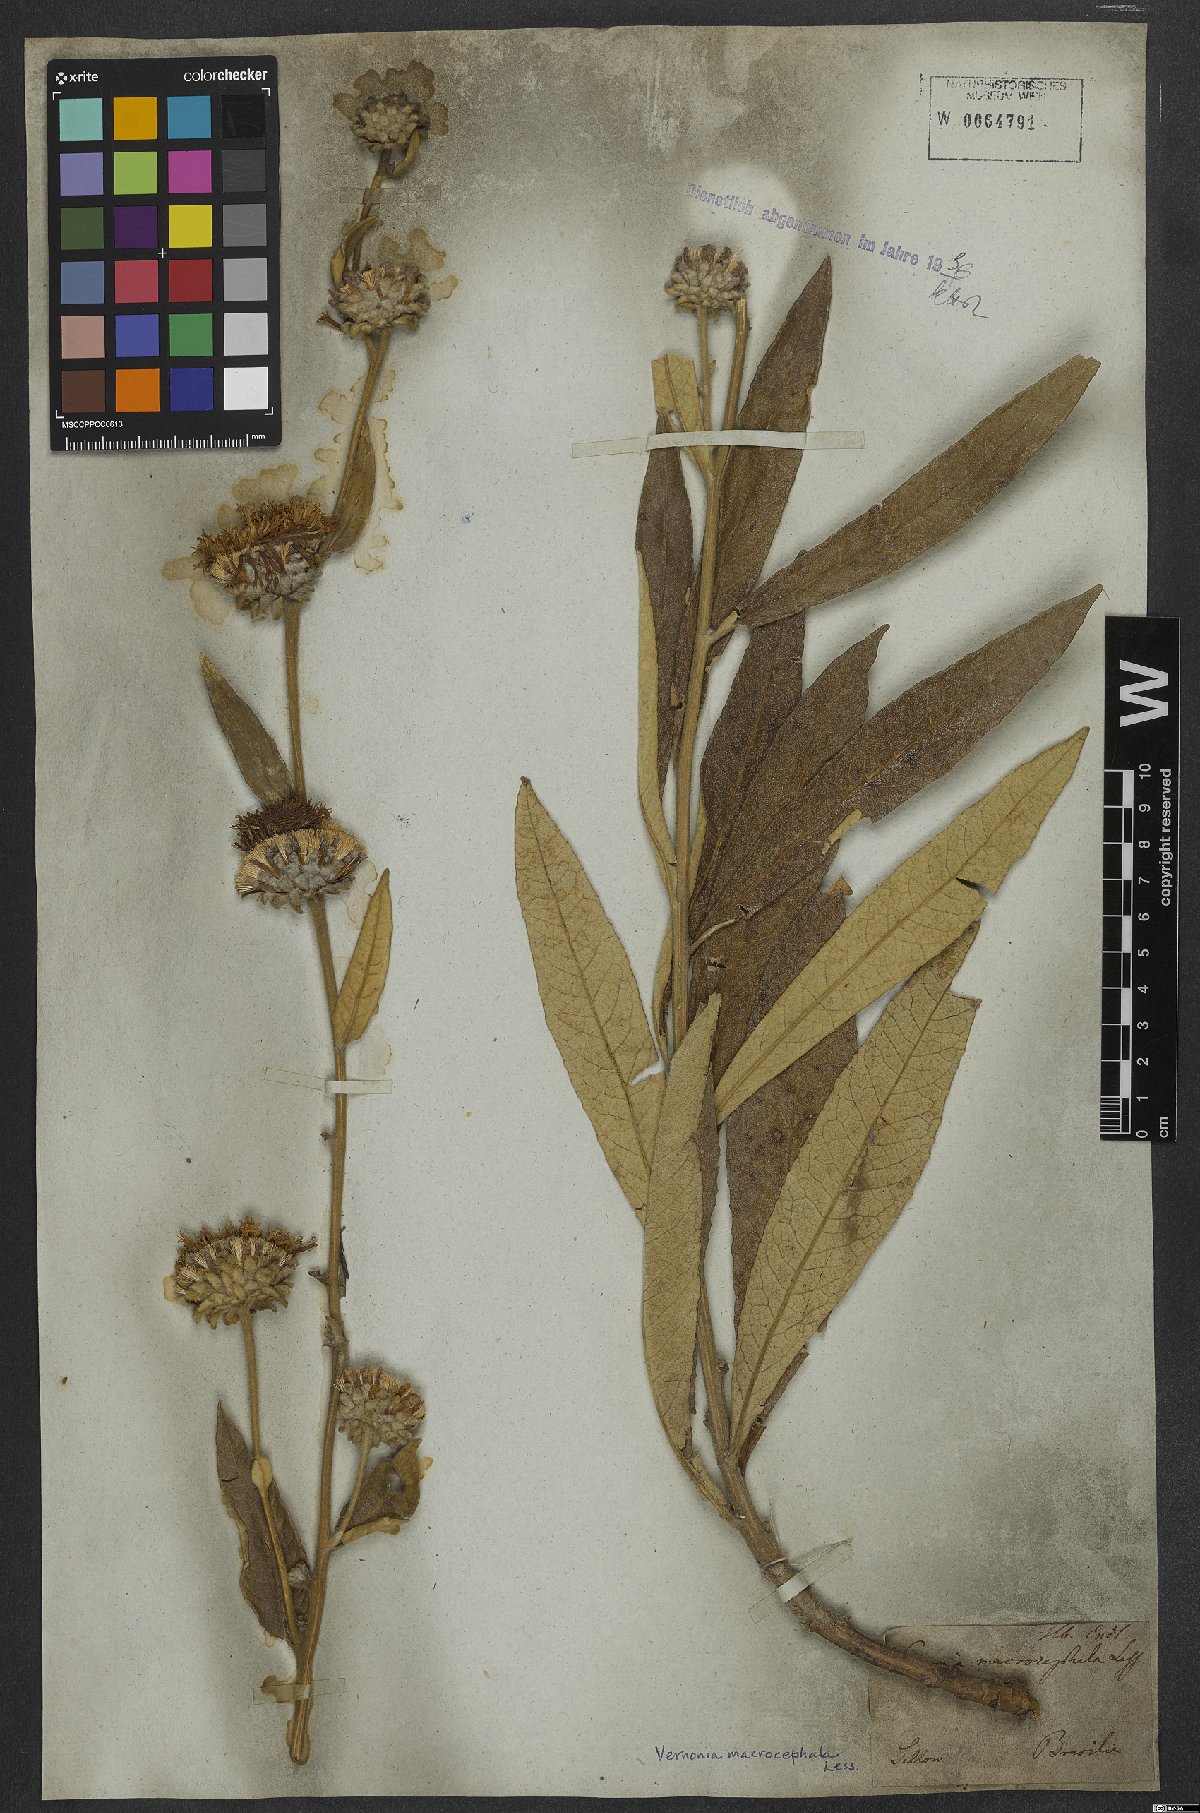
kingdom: Plantae
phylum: Tracheophyta
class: Magnoliopsida
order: Asterales
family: Asteraceae
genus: Lessingianthus
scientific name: Lessingianthus macrocephalus
